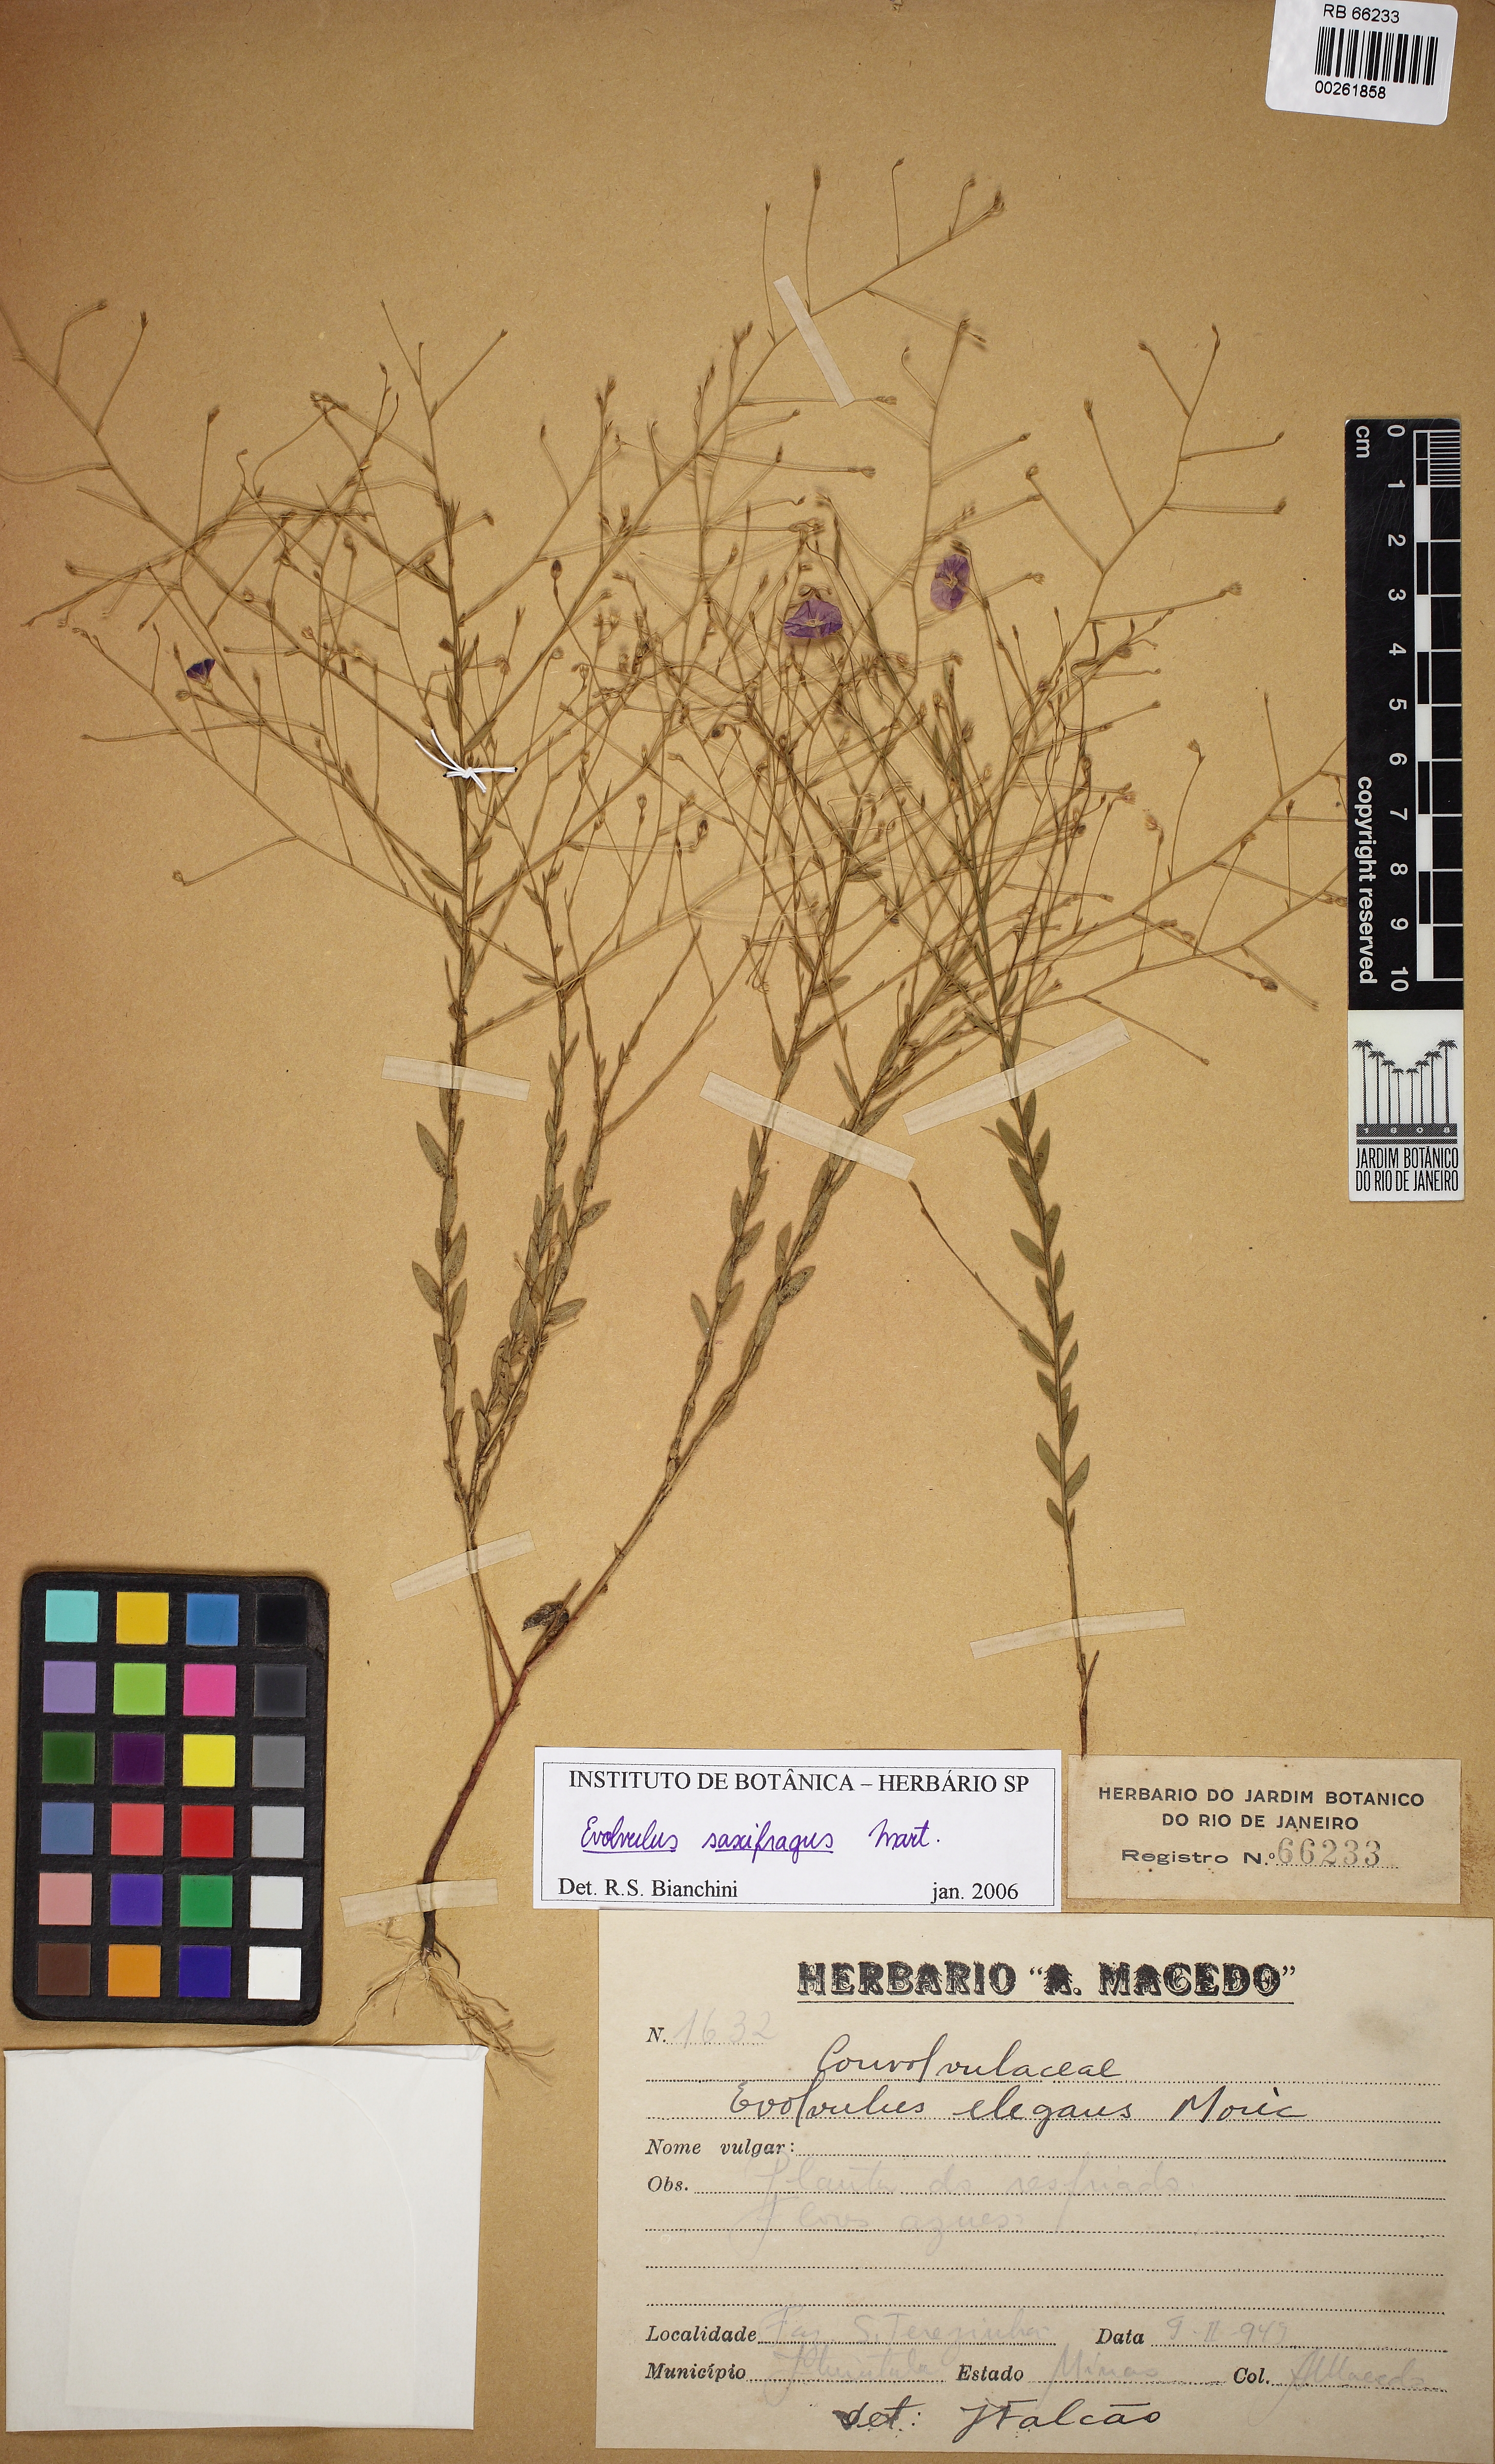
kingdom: Plantae
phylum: Tracheophyta
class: Magnoliopsida
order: Solanales
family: Convolvulaceae
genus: Evolvulus
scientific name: Evolvulus saxifragus
